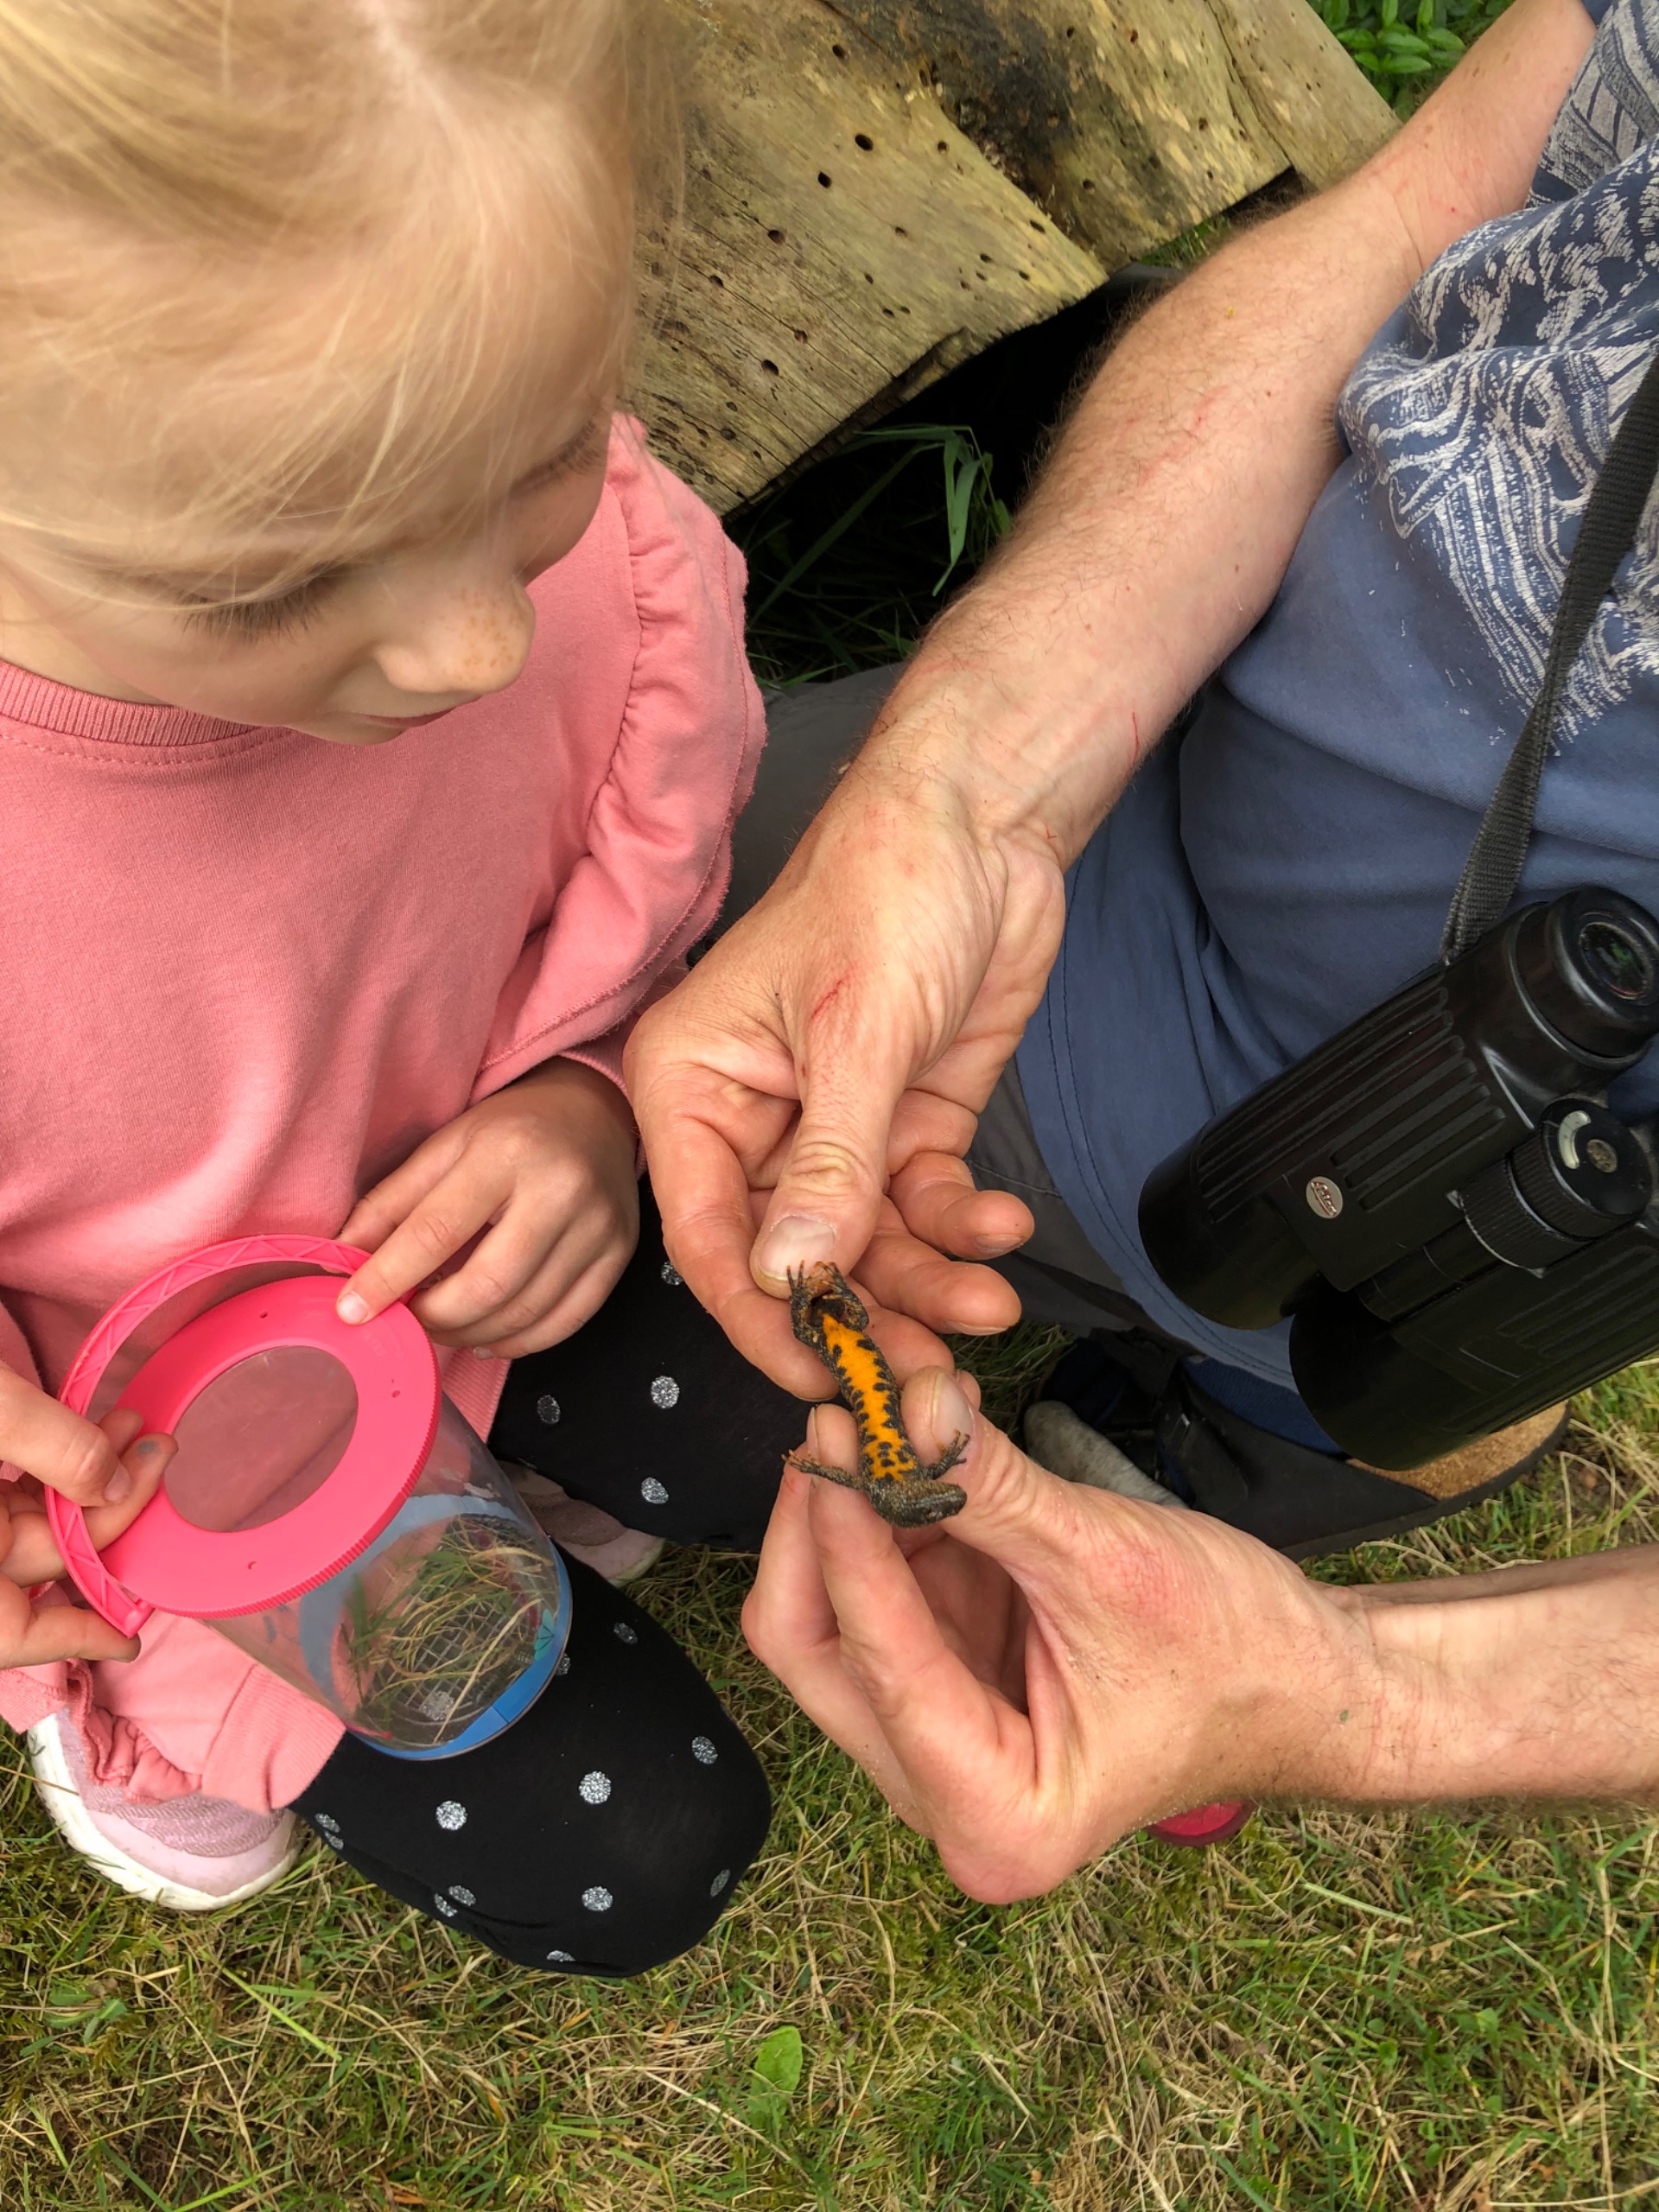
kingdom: Animalia
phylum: Chordata
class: Amphibia
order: Caudata
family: Salamandridae
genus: Triturus
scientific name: Triturus cristatus
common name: Stor vandsalamander
